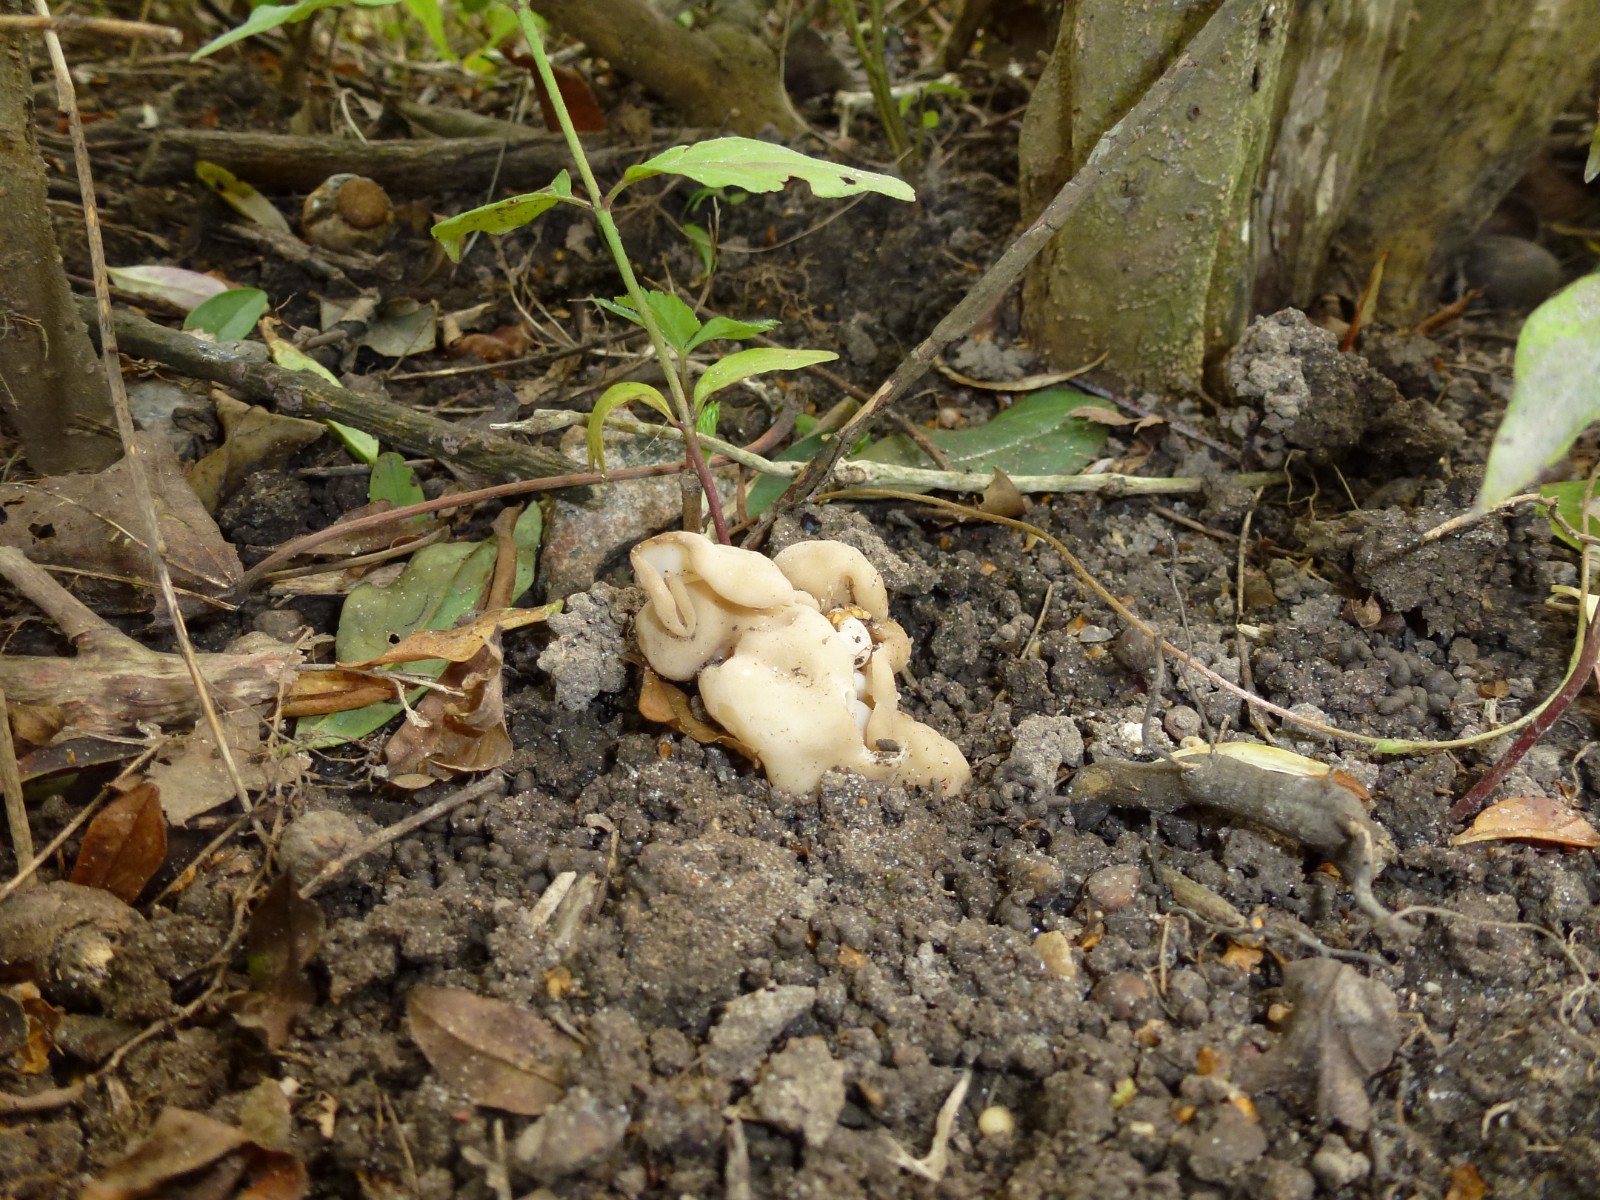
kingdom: Fungi
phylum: Ascomycota
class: Pezizomycetes
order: Pezizales
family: Helvellaceae
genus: Helvella
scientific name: Helvella
